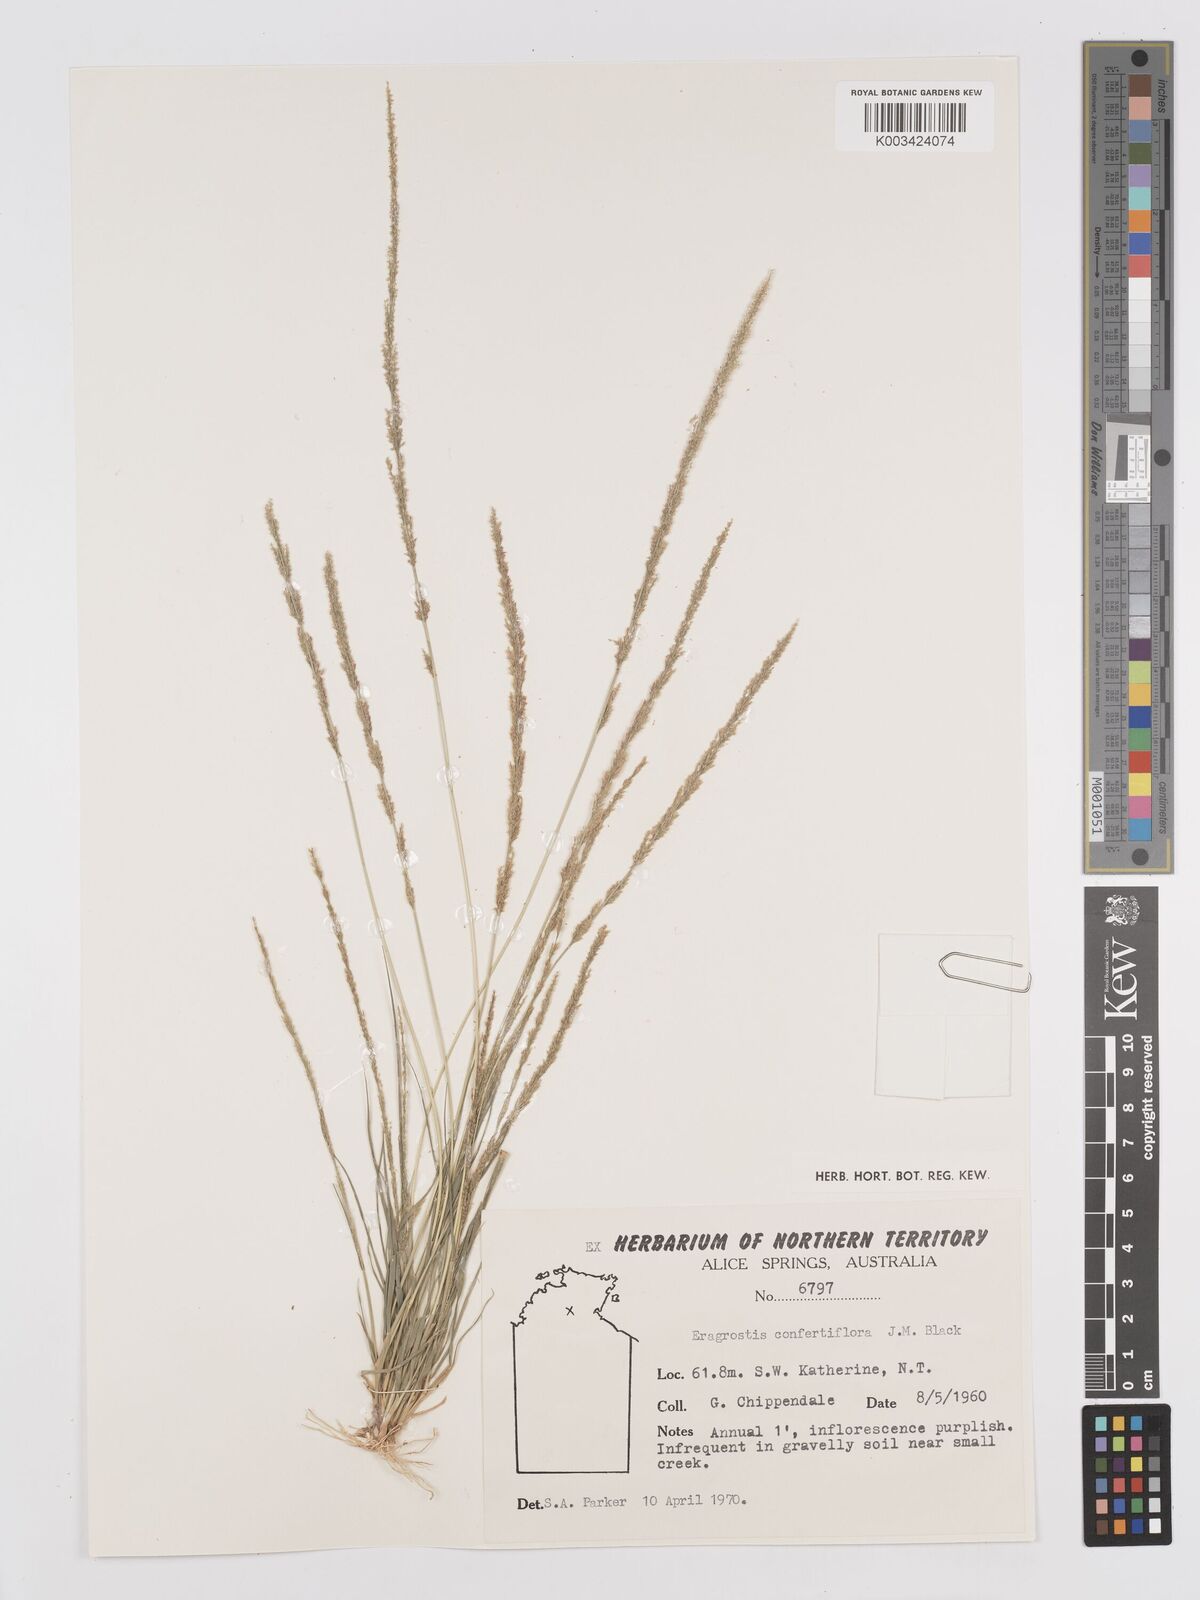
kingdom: Plantae
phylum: Tracheophyta
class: Liliopsida
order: Poales
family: Poaceae
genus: Eragrostis
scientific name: Eragrostis confertiflora
